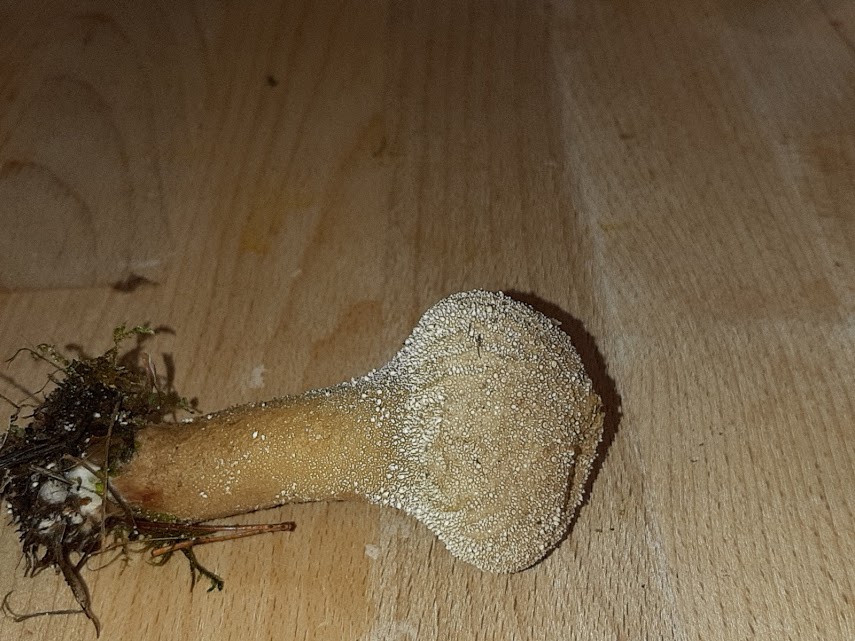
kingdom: Fungi
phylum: Basidiomycota
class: Agaricomycetes
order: Agaricales
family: Lycoperdaceae
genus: Lycoperdon
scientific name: Lycoperdon perlatum
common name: krystal-støvbold
